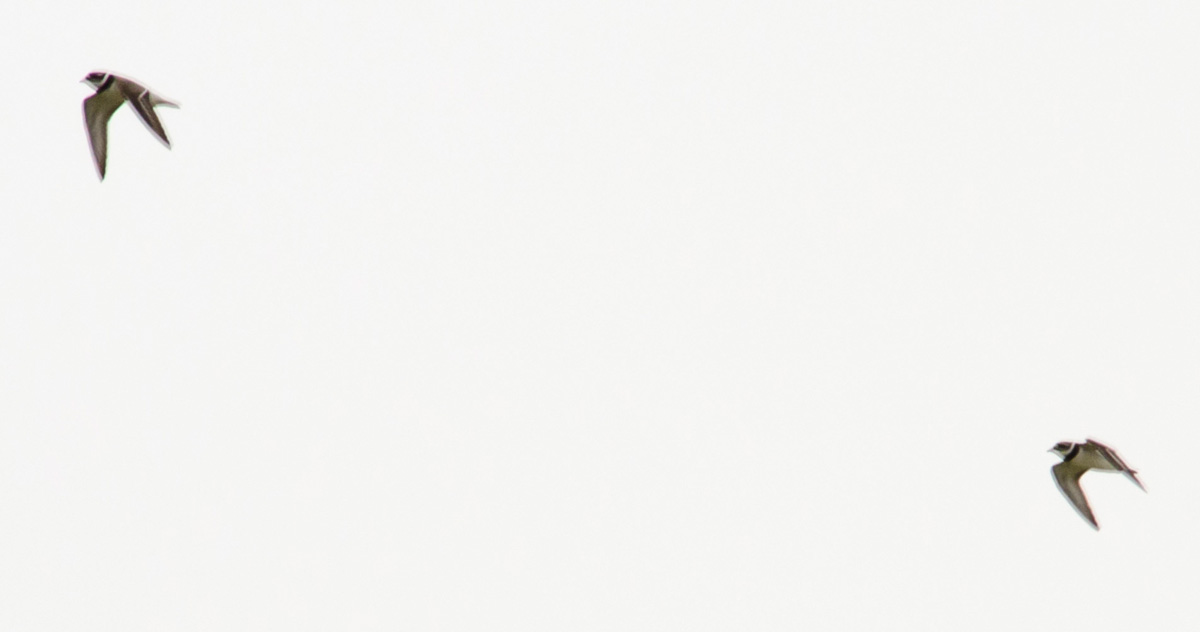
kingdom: Animalia
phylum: Chordata
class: Aves
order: Charadriiformes
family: Charadriidae
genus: Charadrius
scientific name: Charadrius dubius
